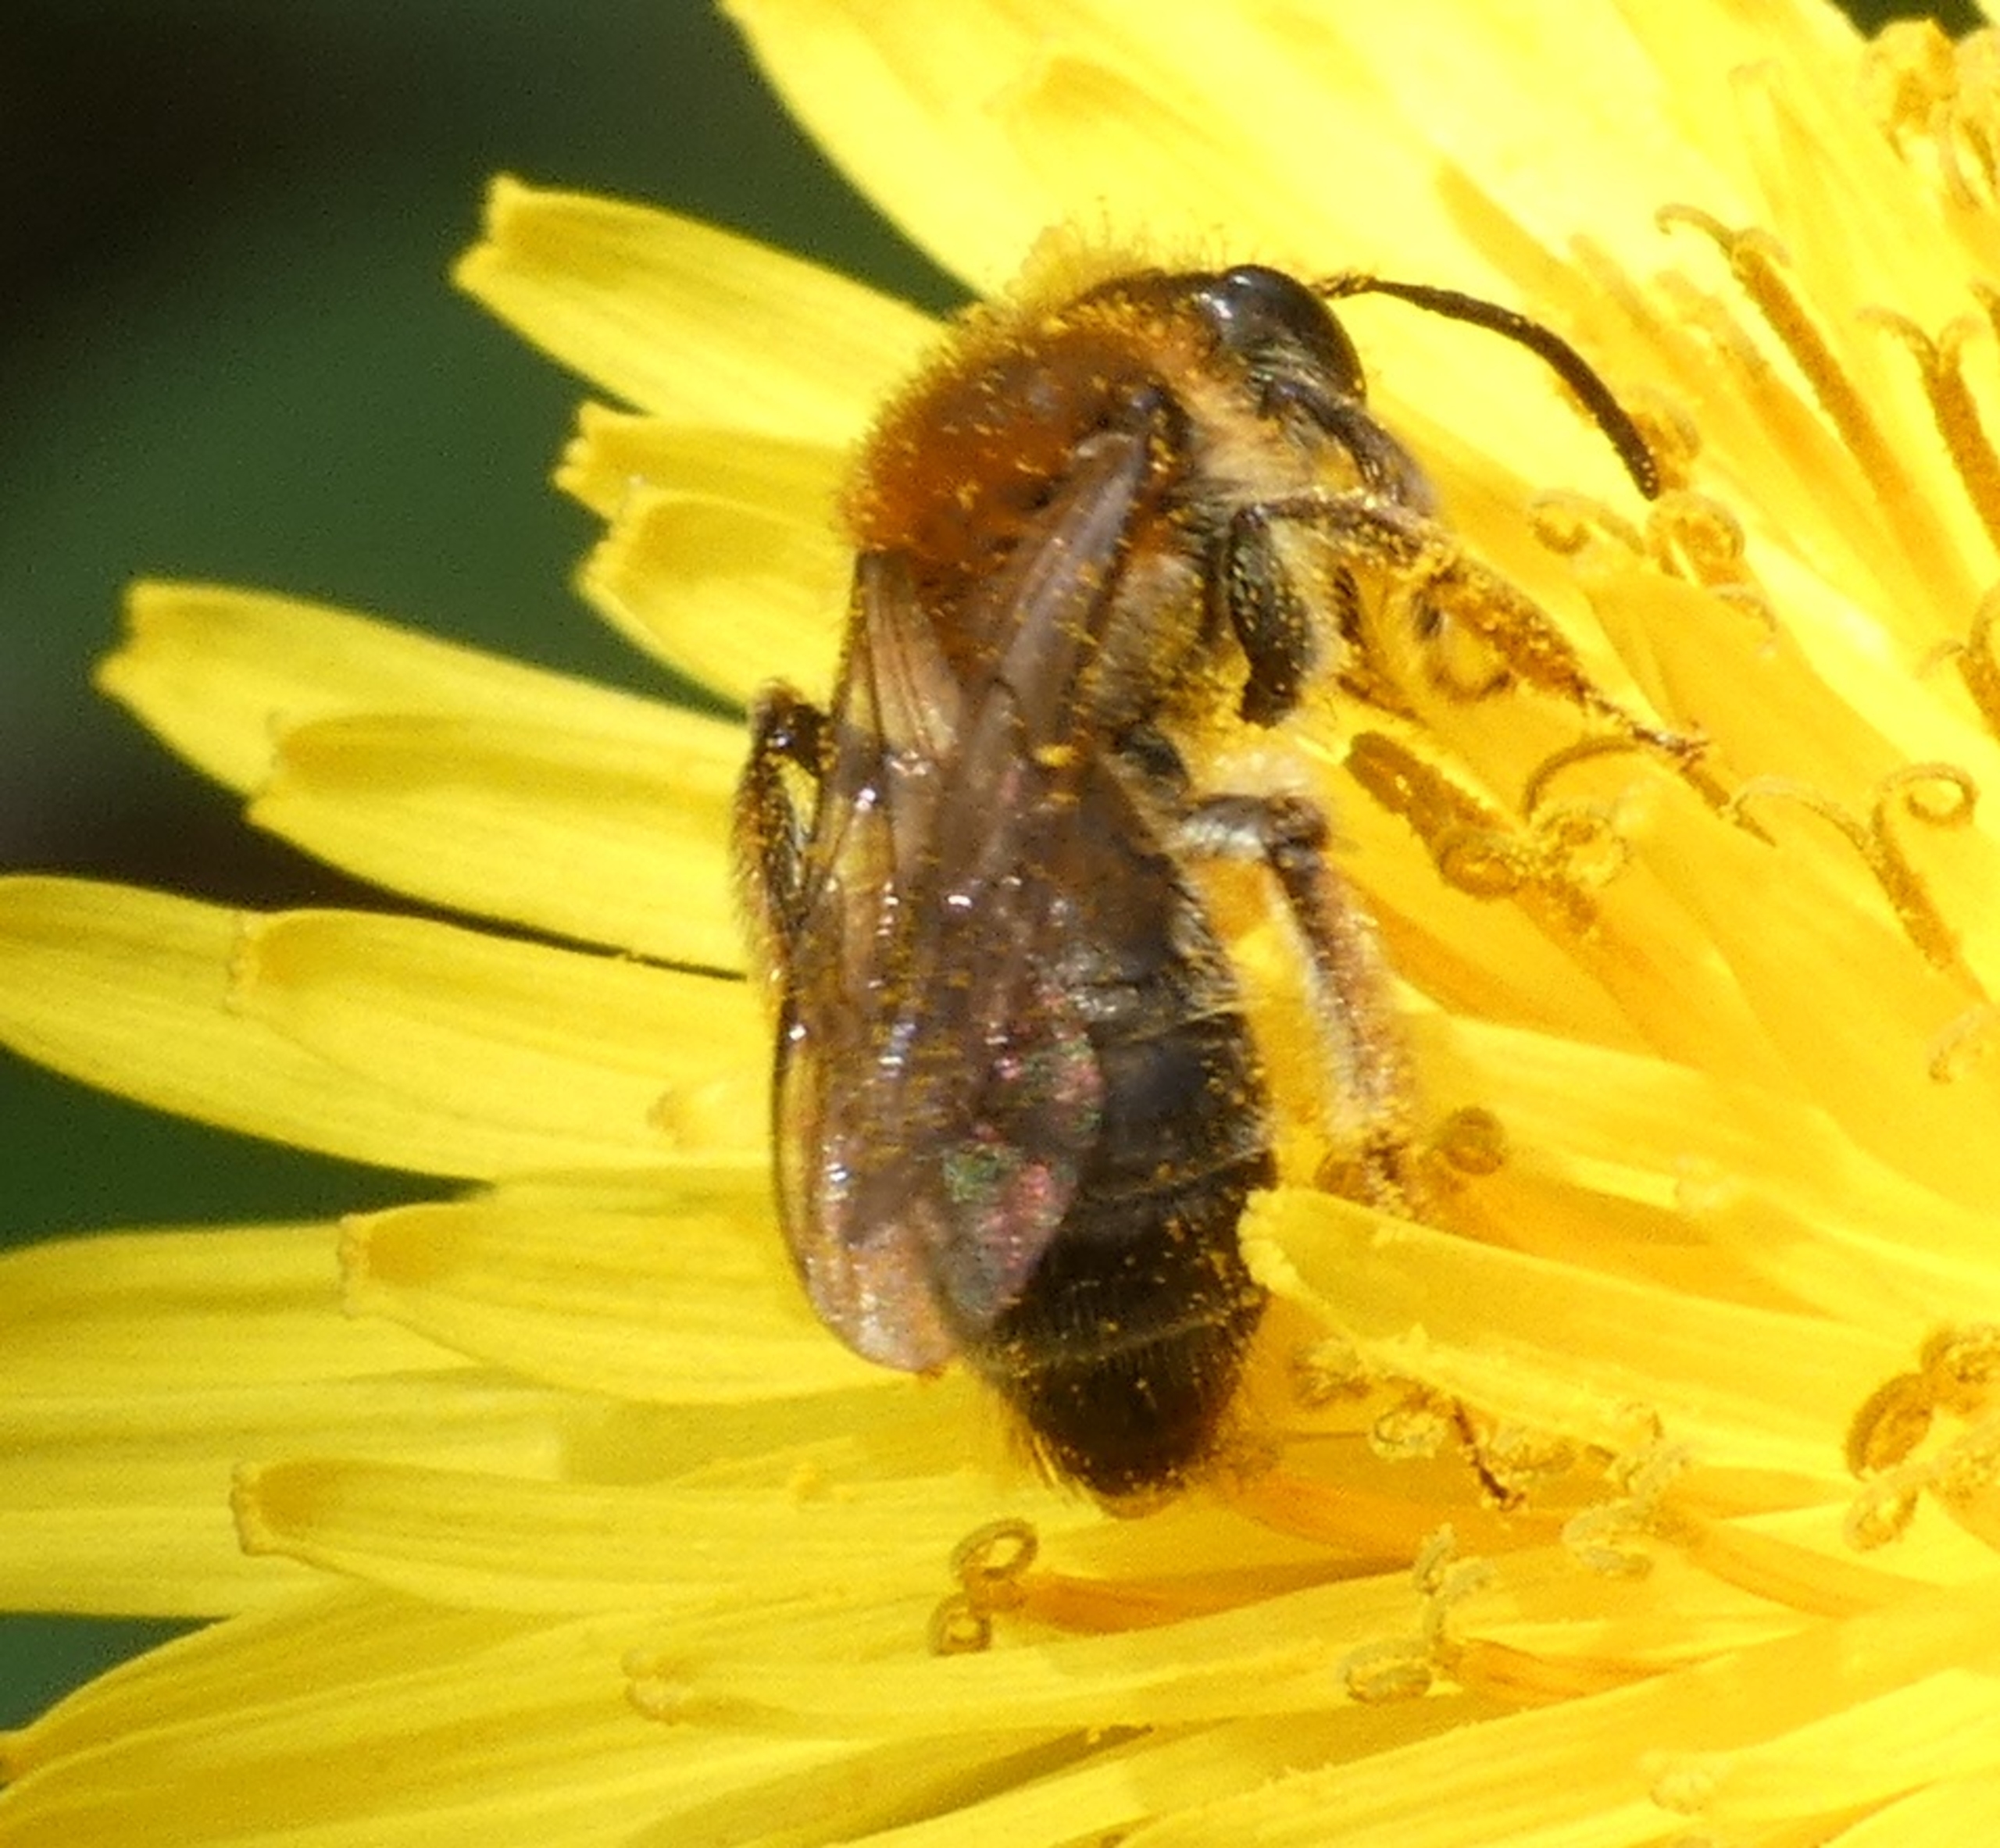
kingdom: Animalia
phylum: Arthropoda
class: Insecta
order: Hymenoptera
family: Andrenidae
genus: Andrena
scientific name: Andrena
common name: Jordbier
